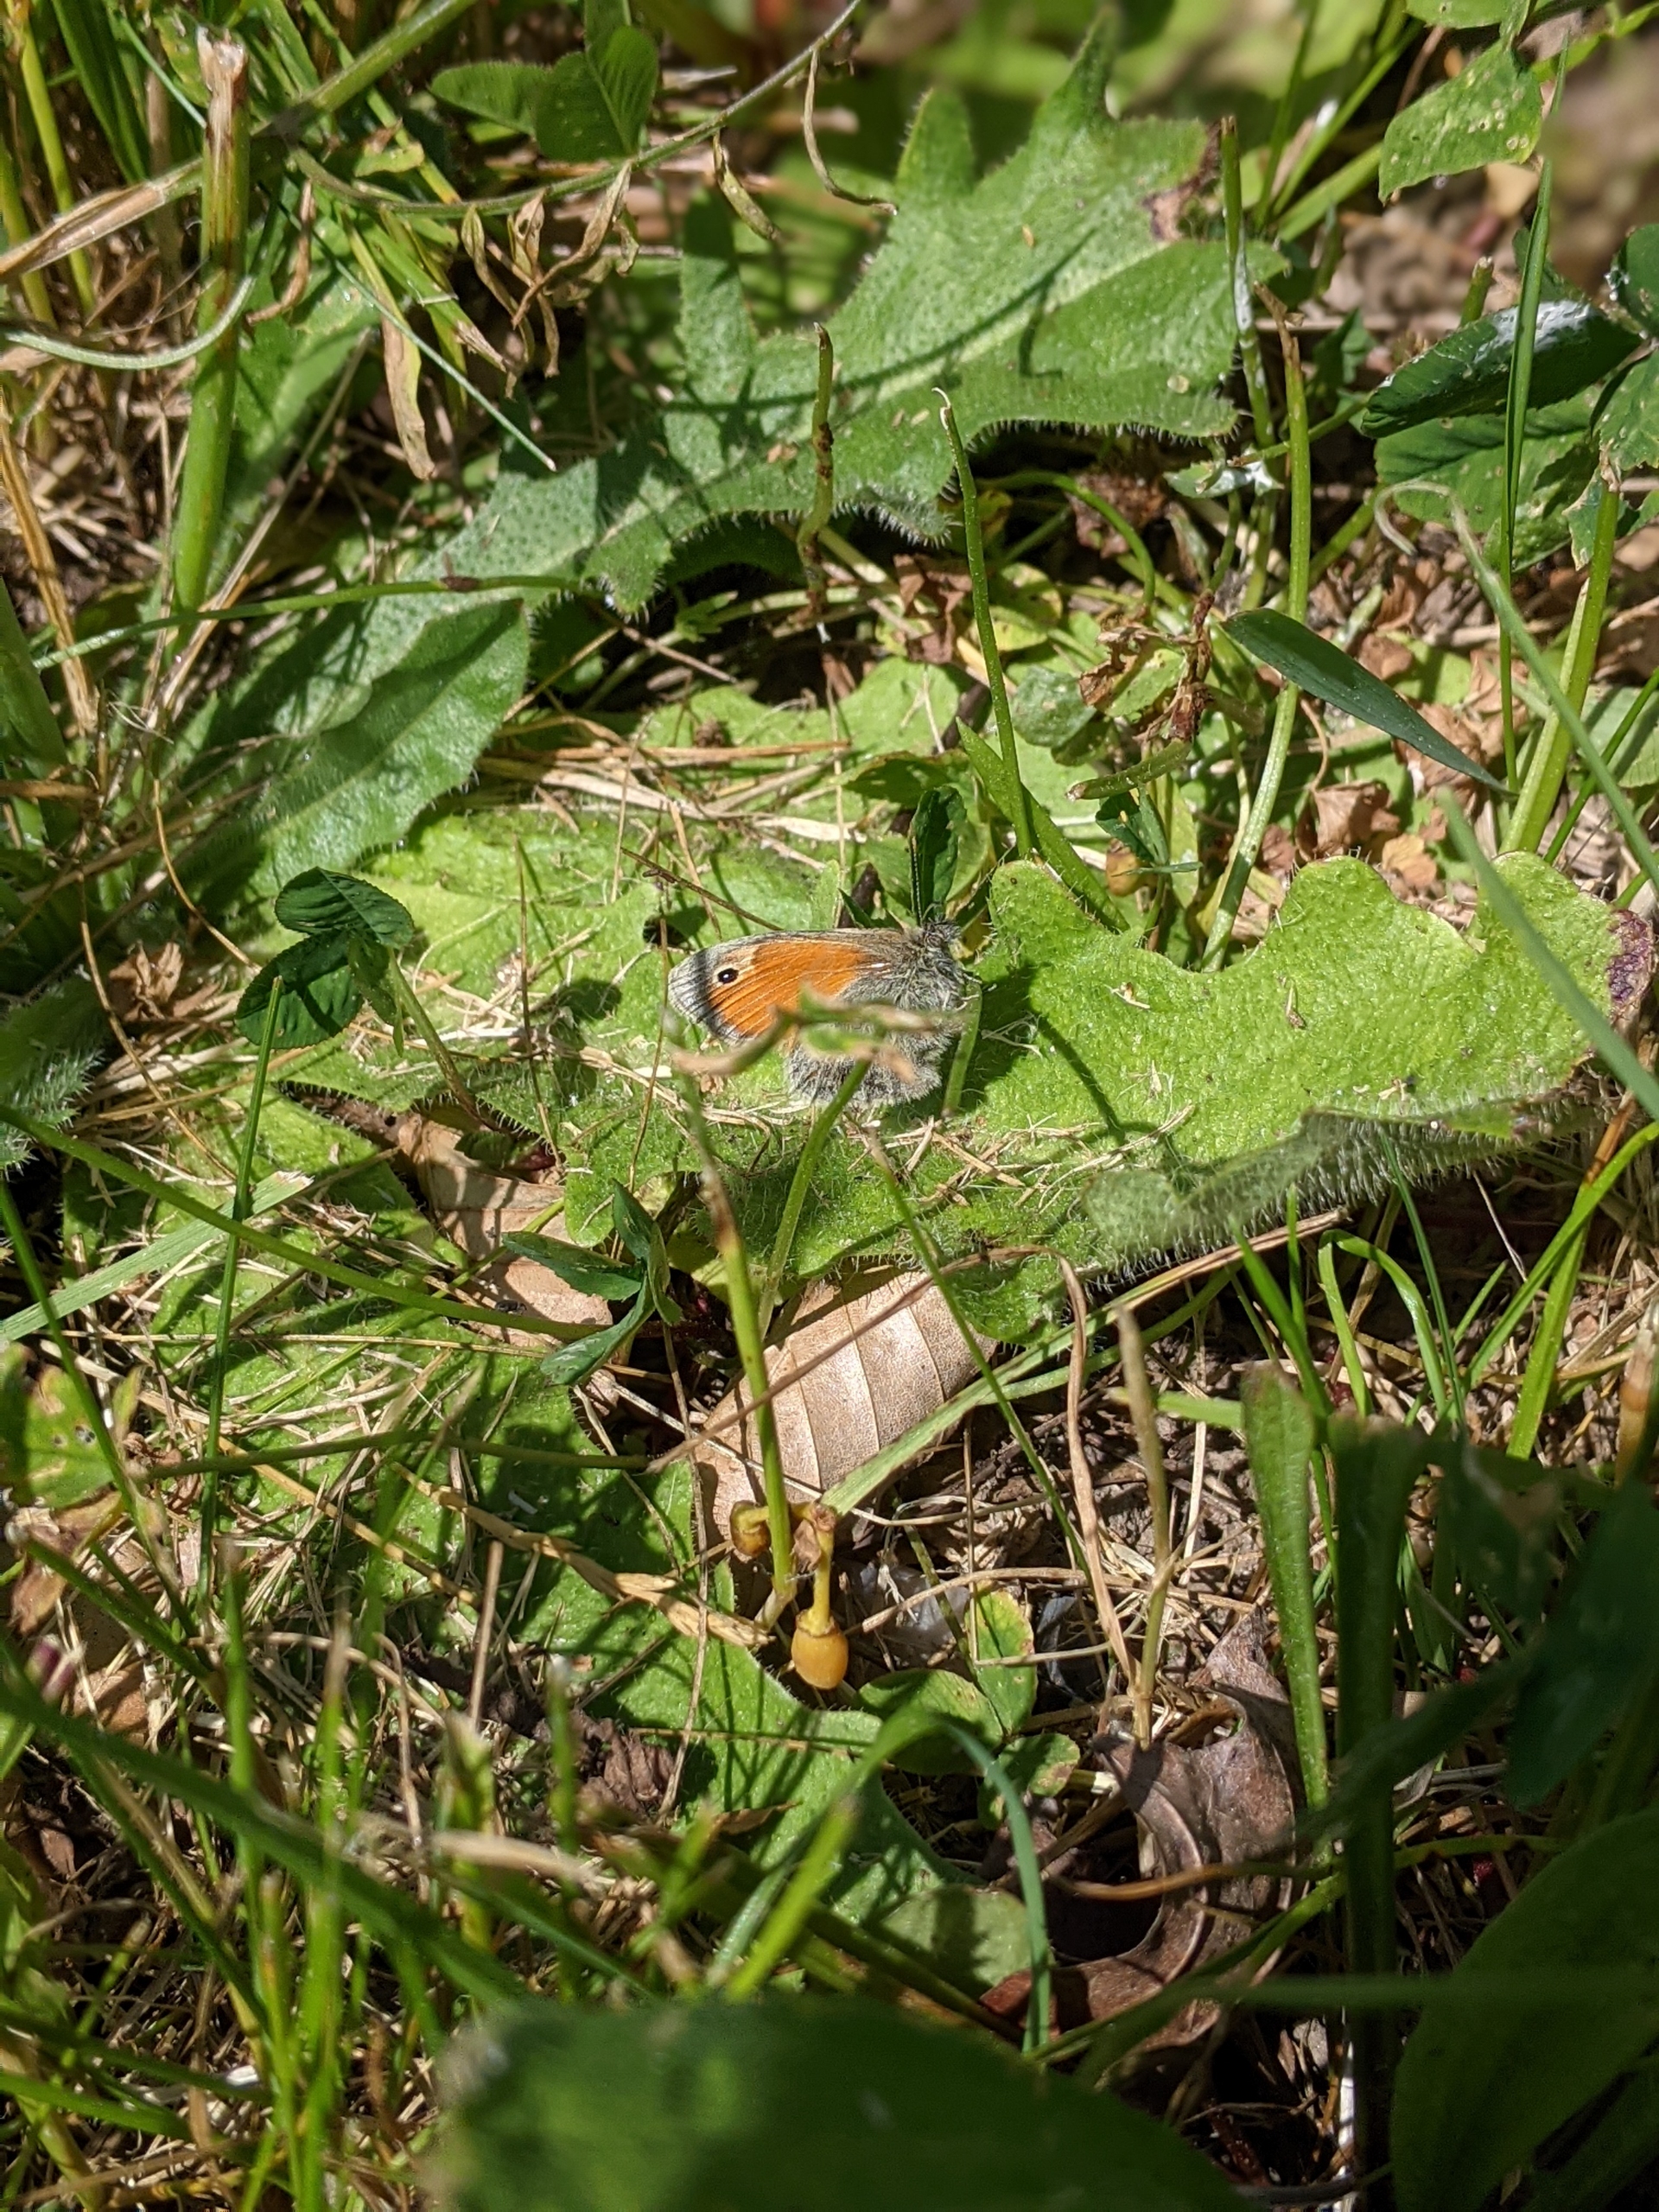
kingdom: Animalia
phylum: Arthropoda
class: Insecta
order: Lepidoptera
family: Nymphalidae
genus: Coenonympha
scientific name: Coenonympha pamphilus
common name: Okkergul randøje
